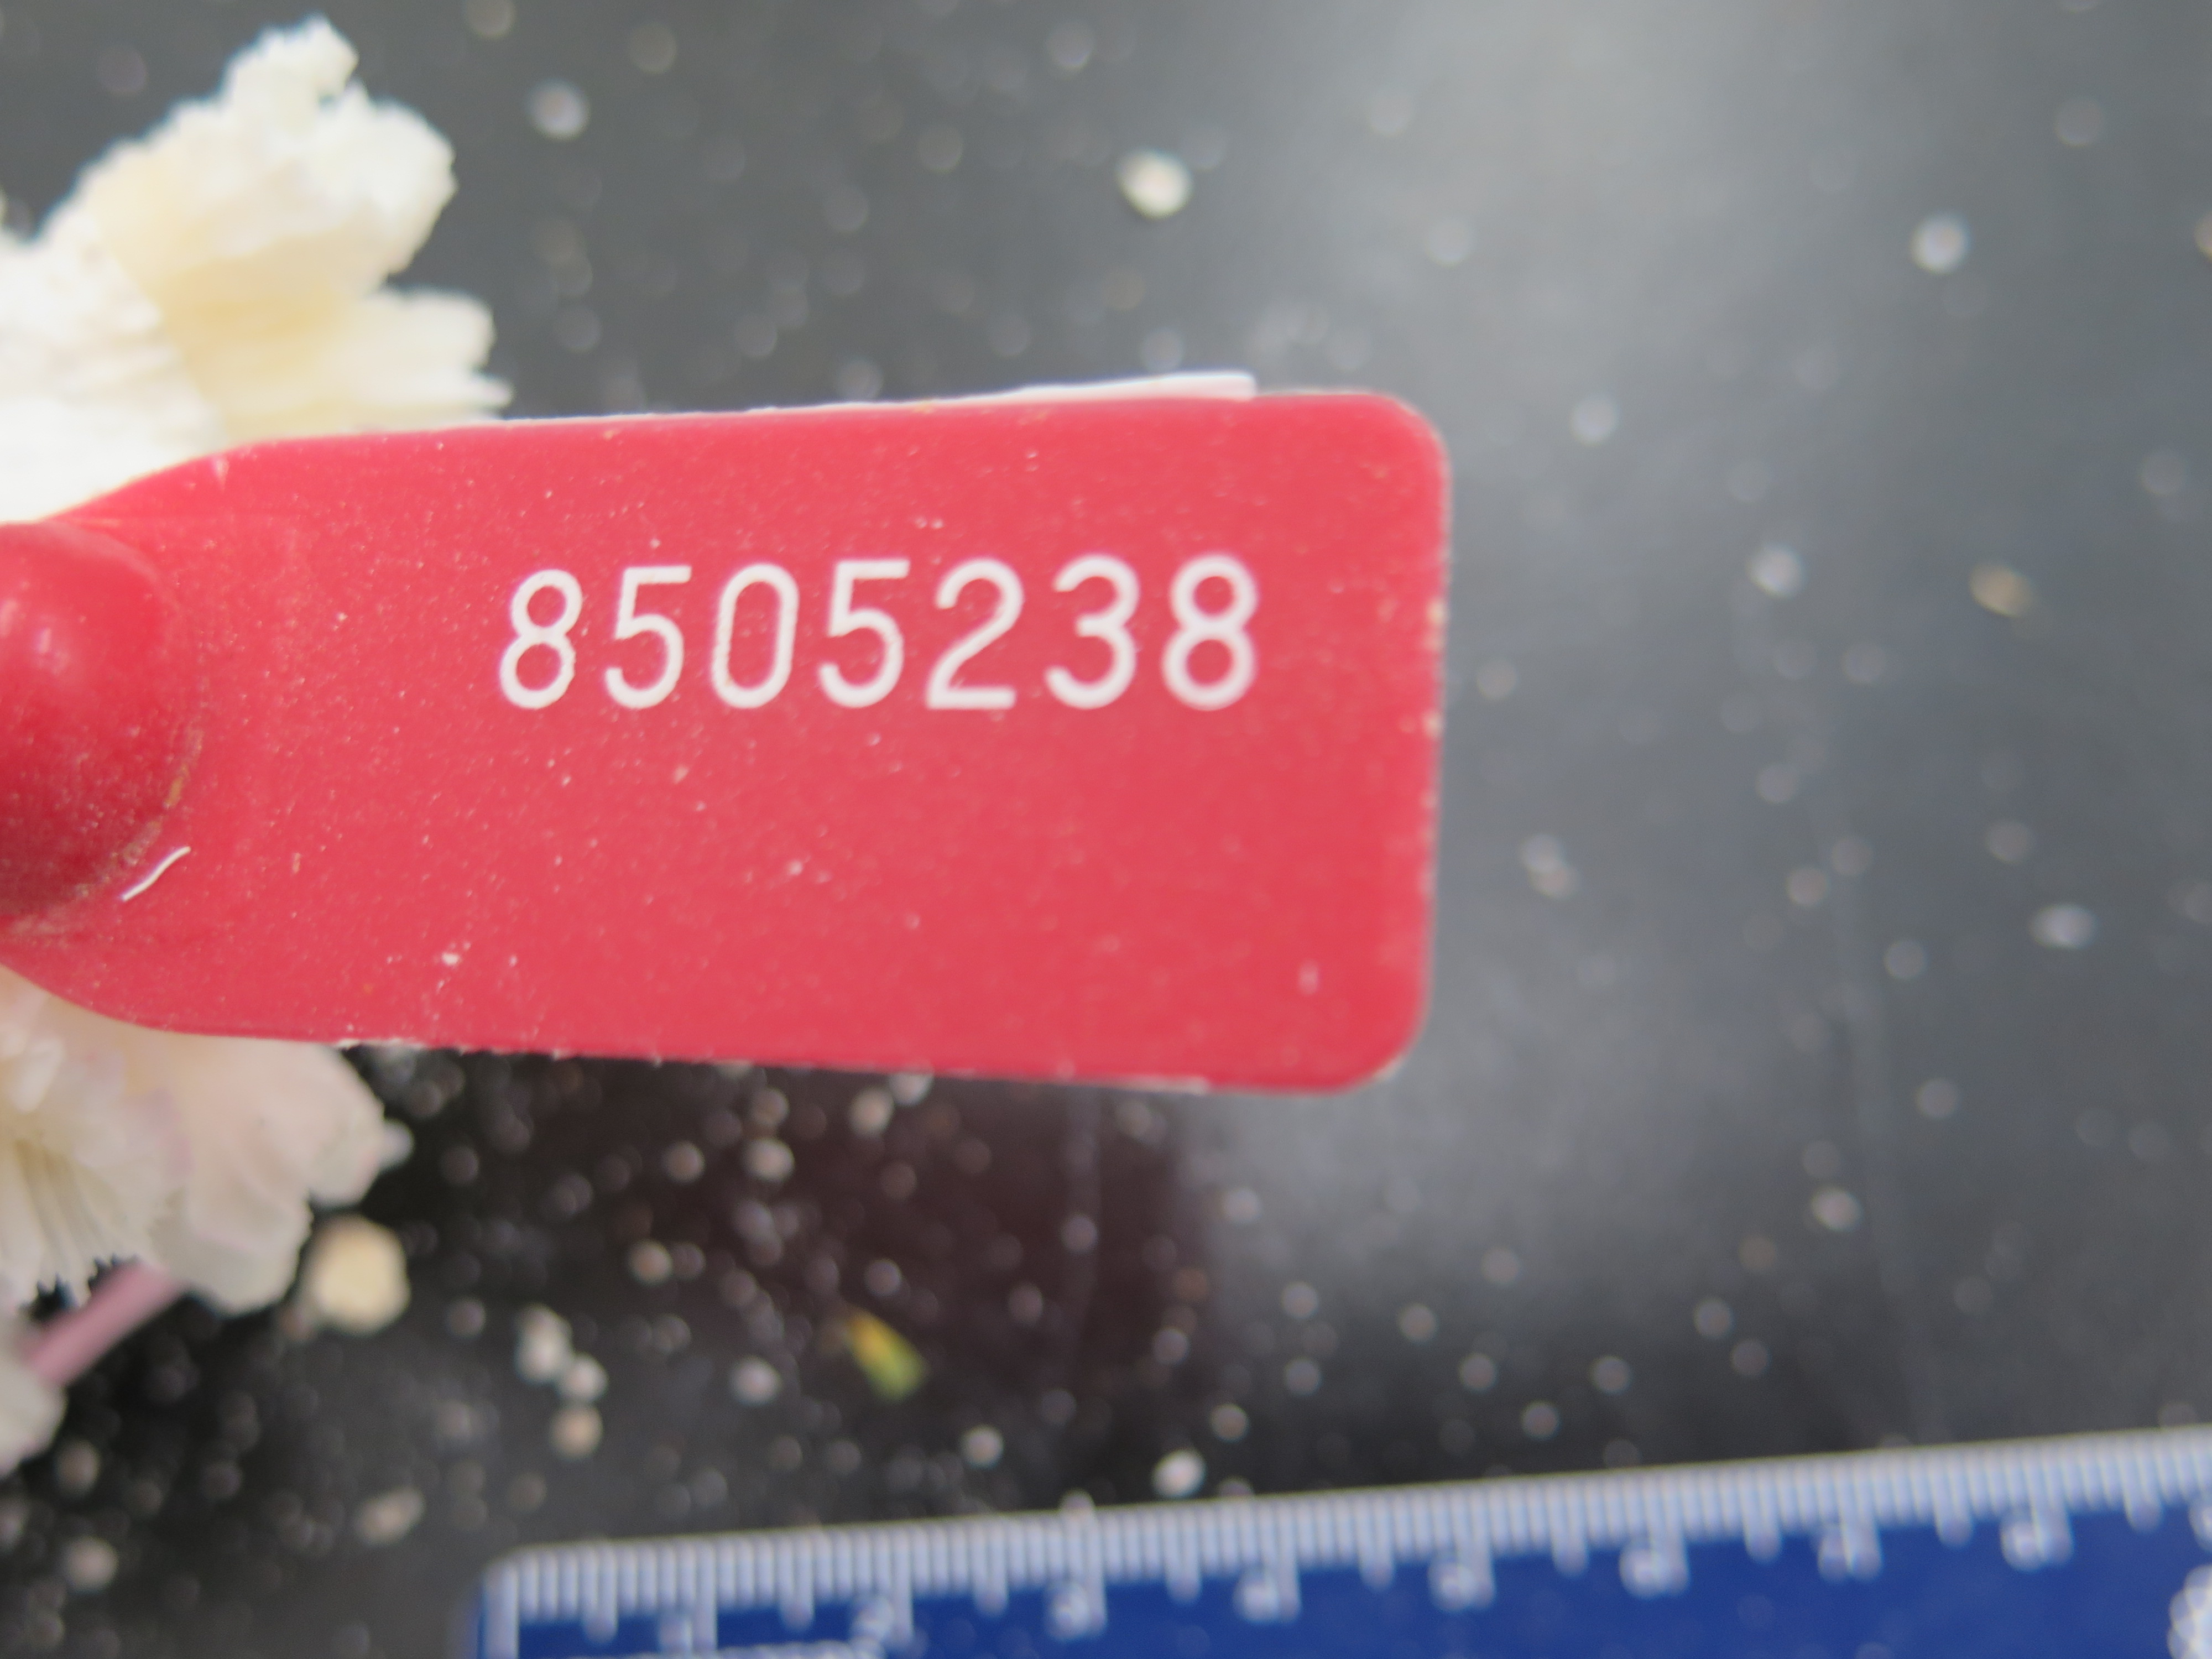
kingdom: Animalia
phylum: Cnidaria
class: Anthozoa
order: Scleractinia
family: Meandrinidae
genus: Eusmilia
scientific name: Eusmilia fastigiata
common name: Smooth flower coral
